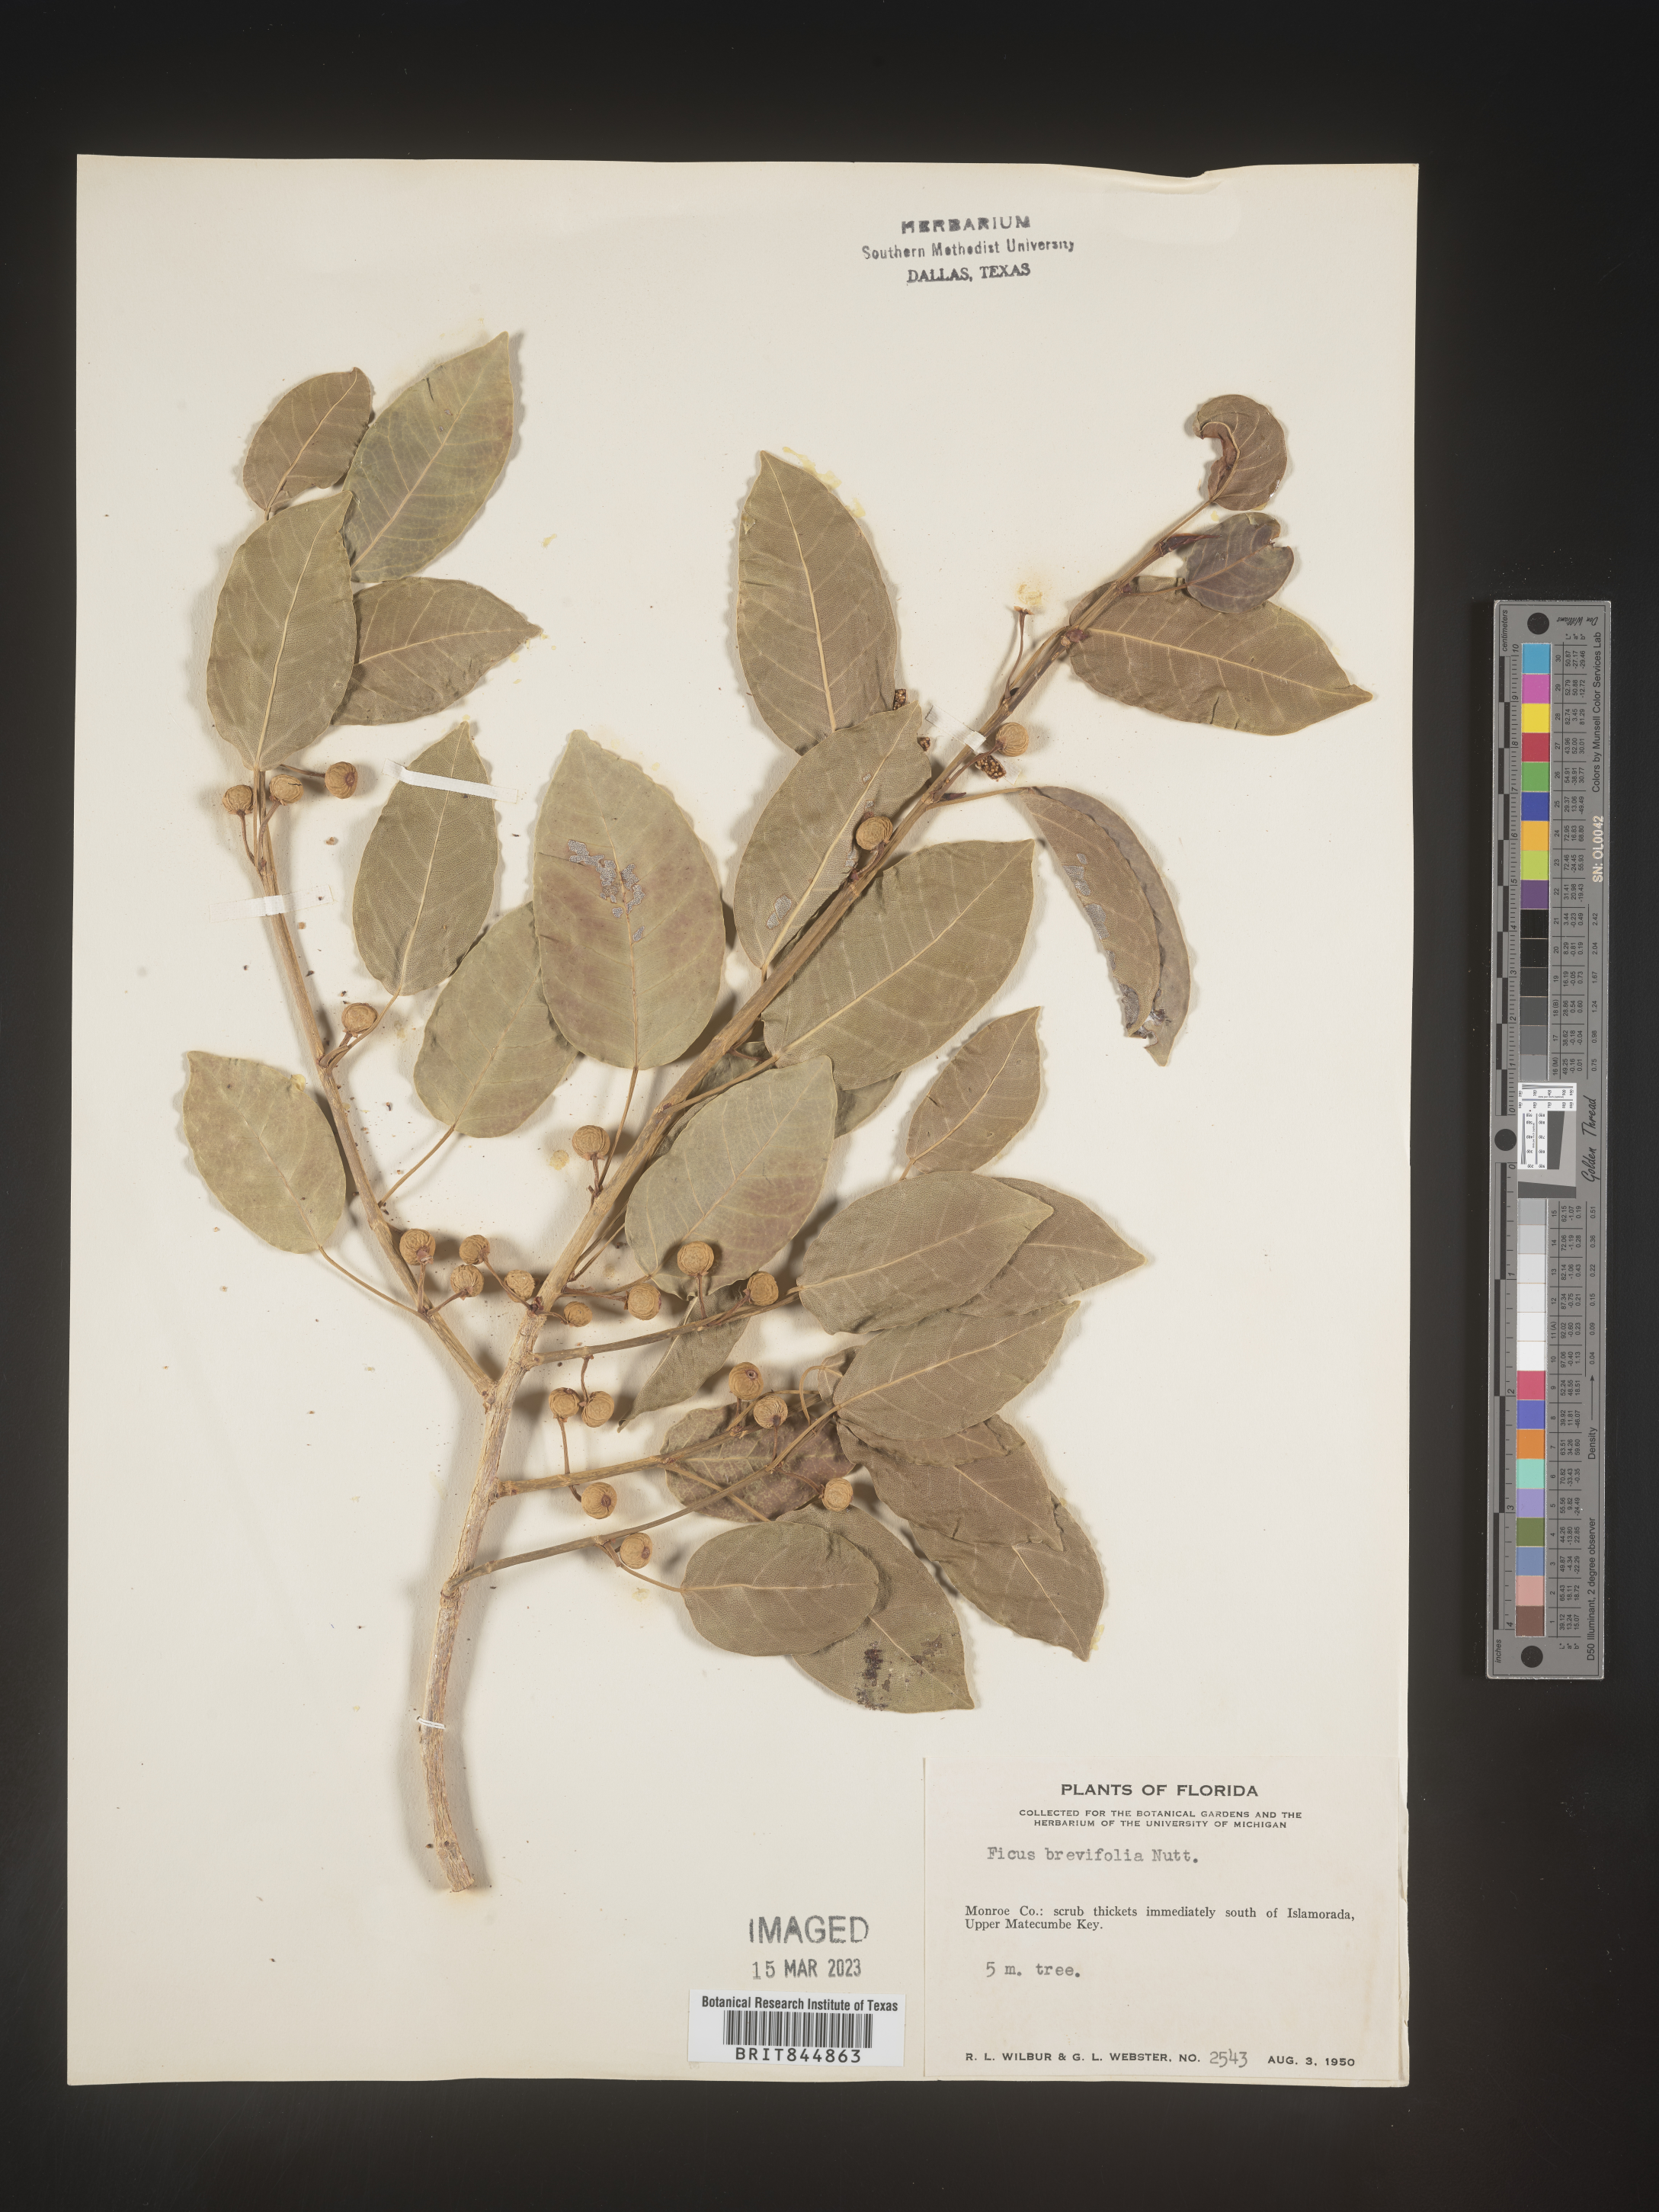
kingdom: Plantae
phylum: Tracheophyta
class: Magnoliopsida
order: Rosales
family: Moraceae
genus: Ficus
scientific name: Ficus
